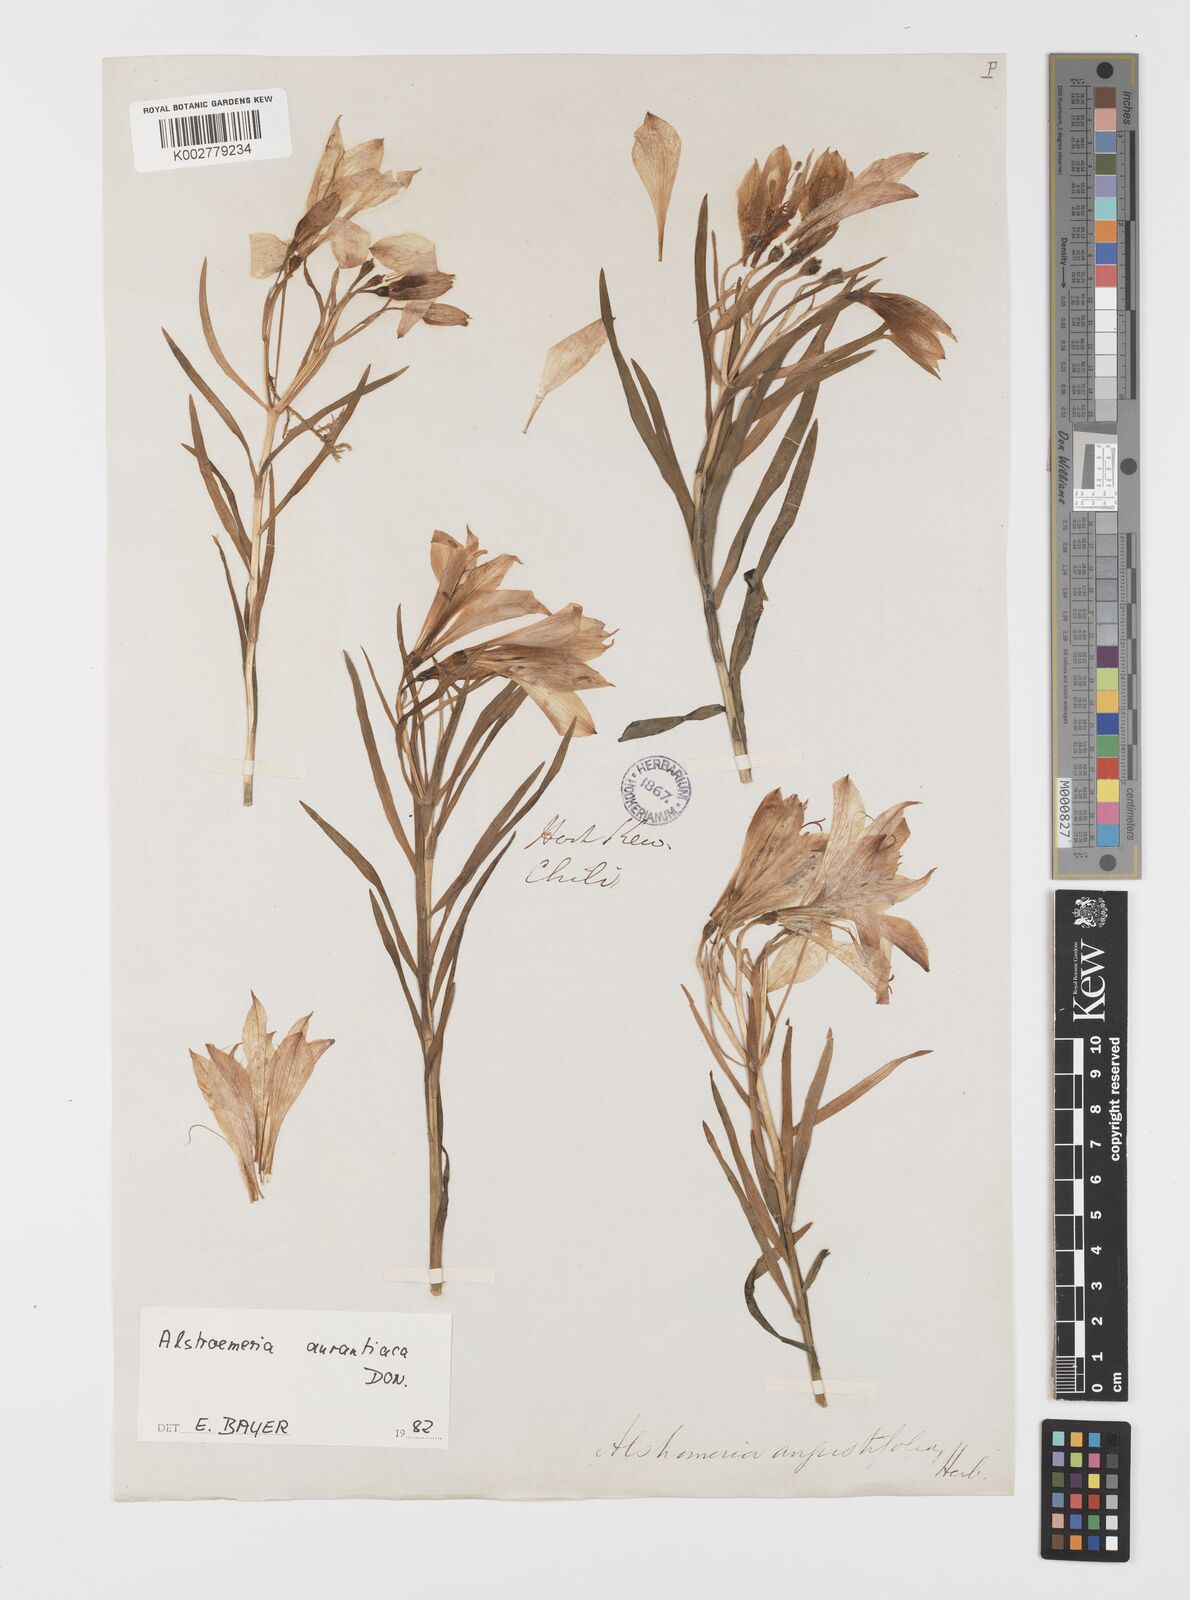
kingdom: Plantae
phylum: Tracheophyta
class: Liliopsida
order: Liliales
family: Alstroemeriaceae
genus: Alstroemeria
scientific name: Alstroemeria aurea
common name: Peruvian lily
